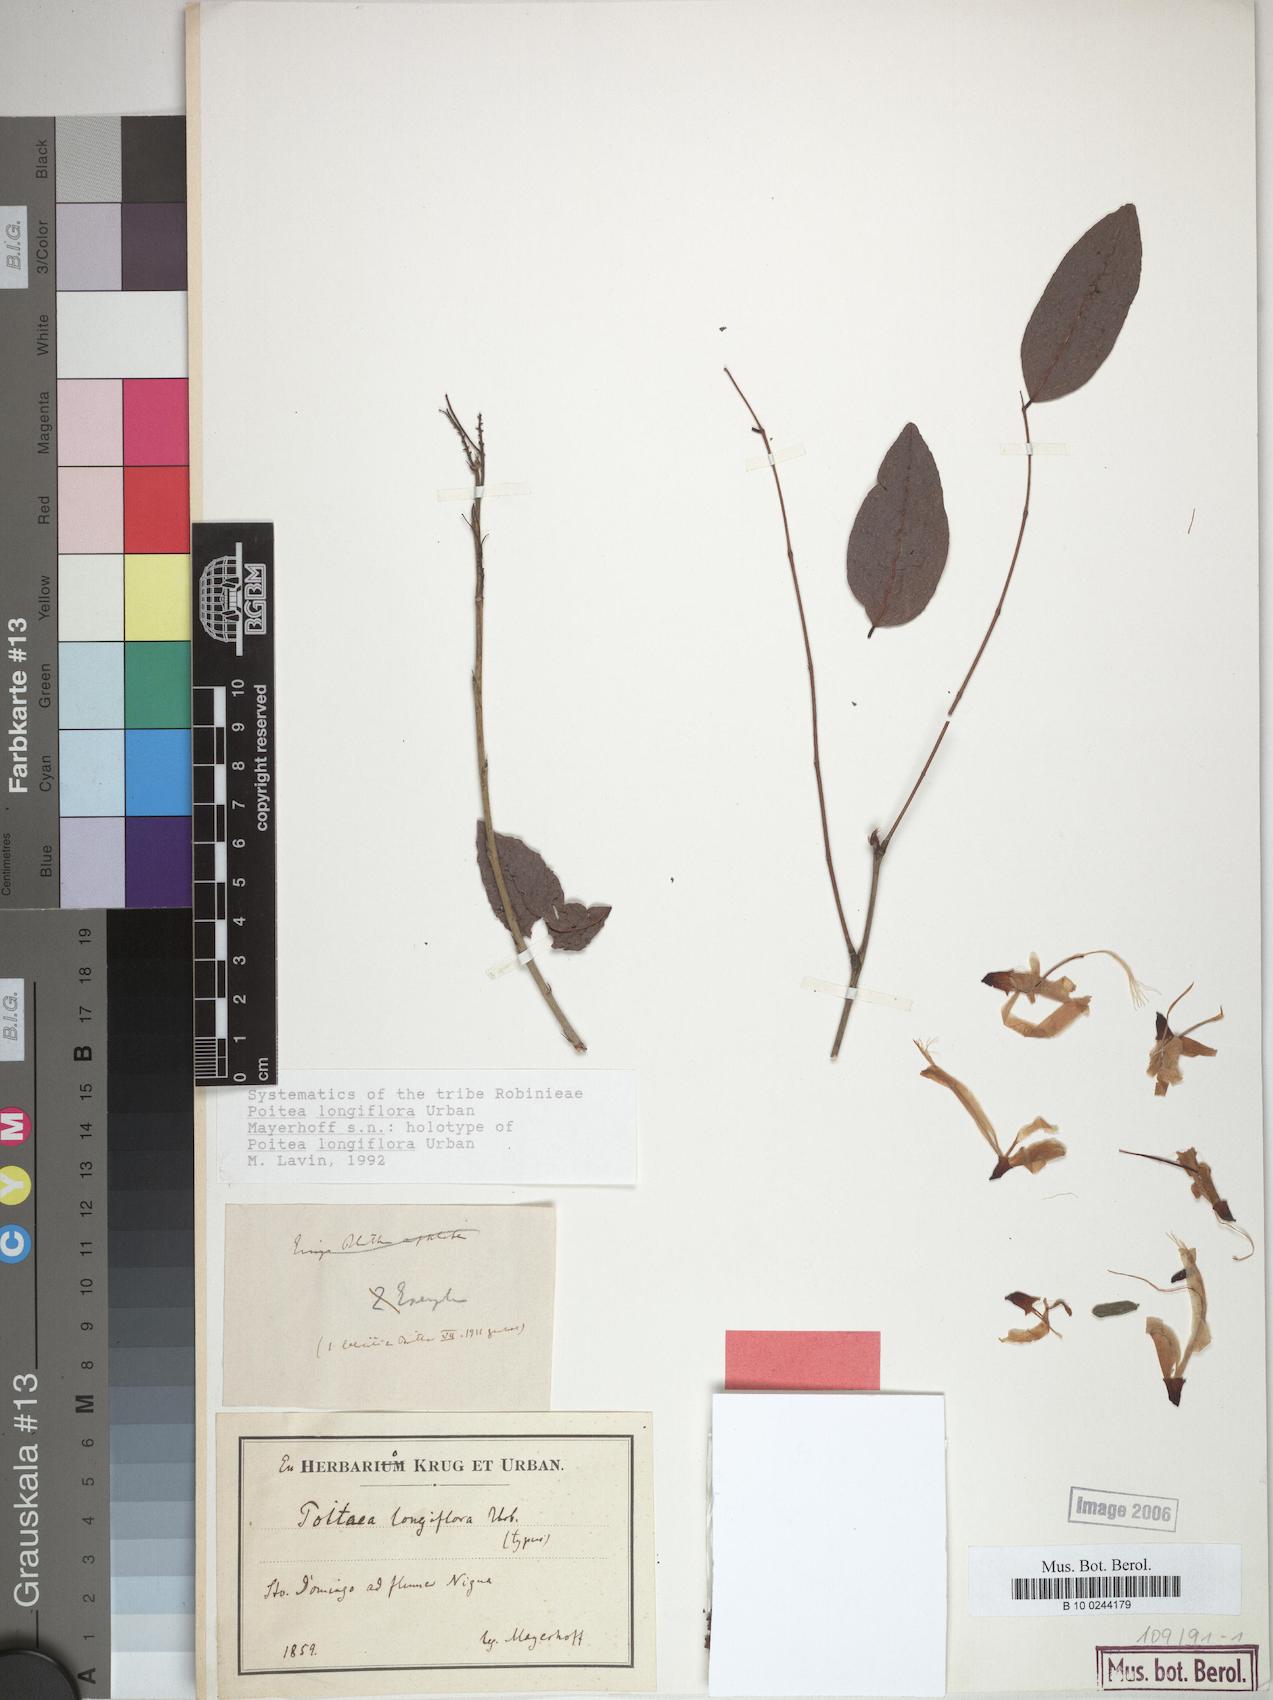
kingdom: Plantae
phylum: Tracheophyta
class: Magnoliopsida
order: Fabales
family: Fabaceae
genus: Poitea
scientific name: Poitea longiflora
